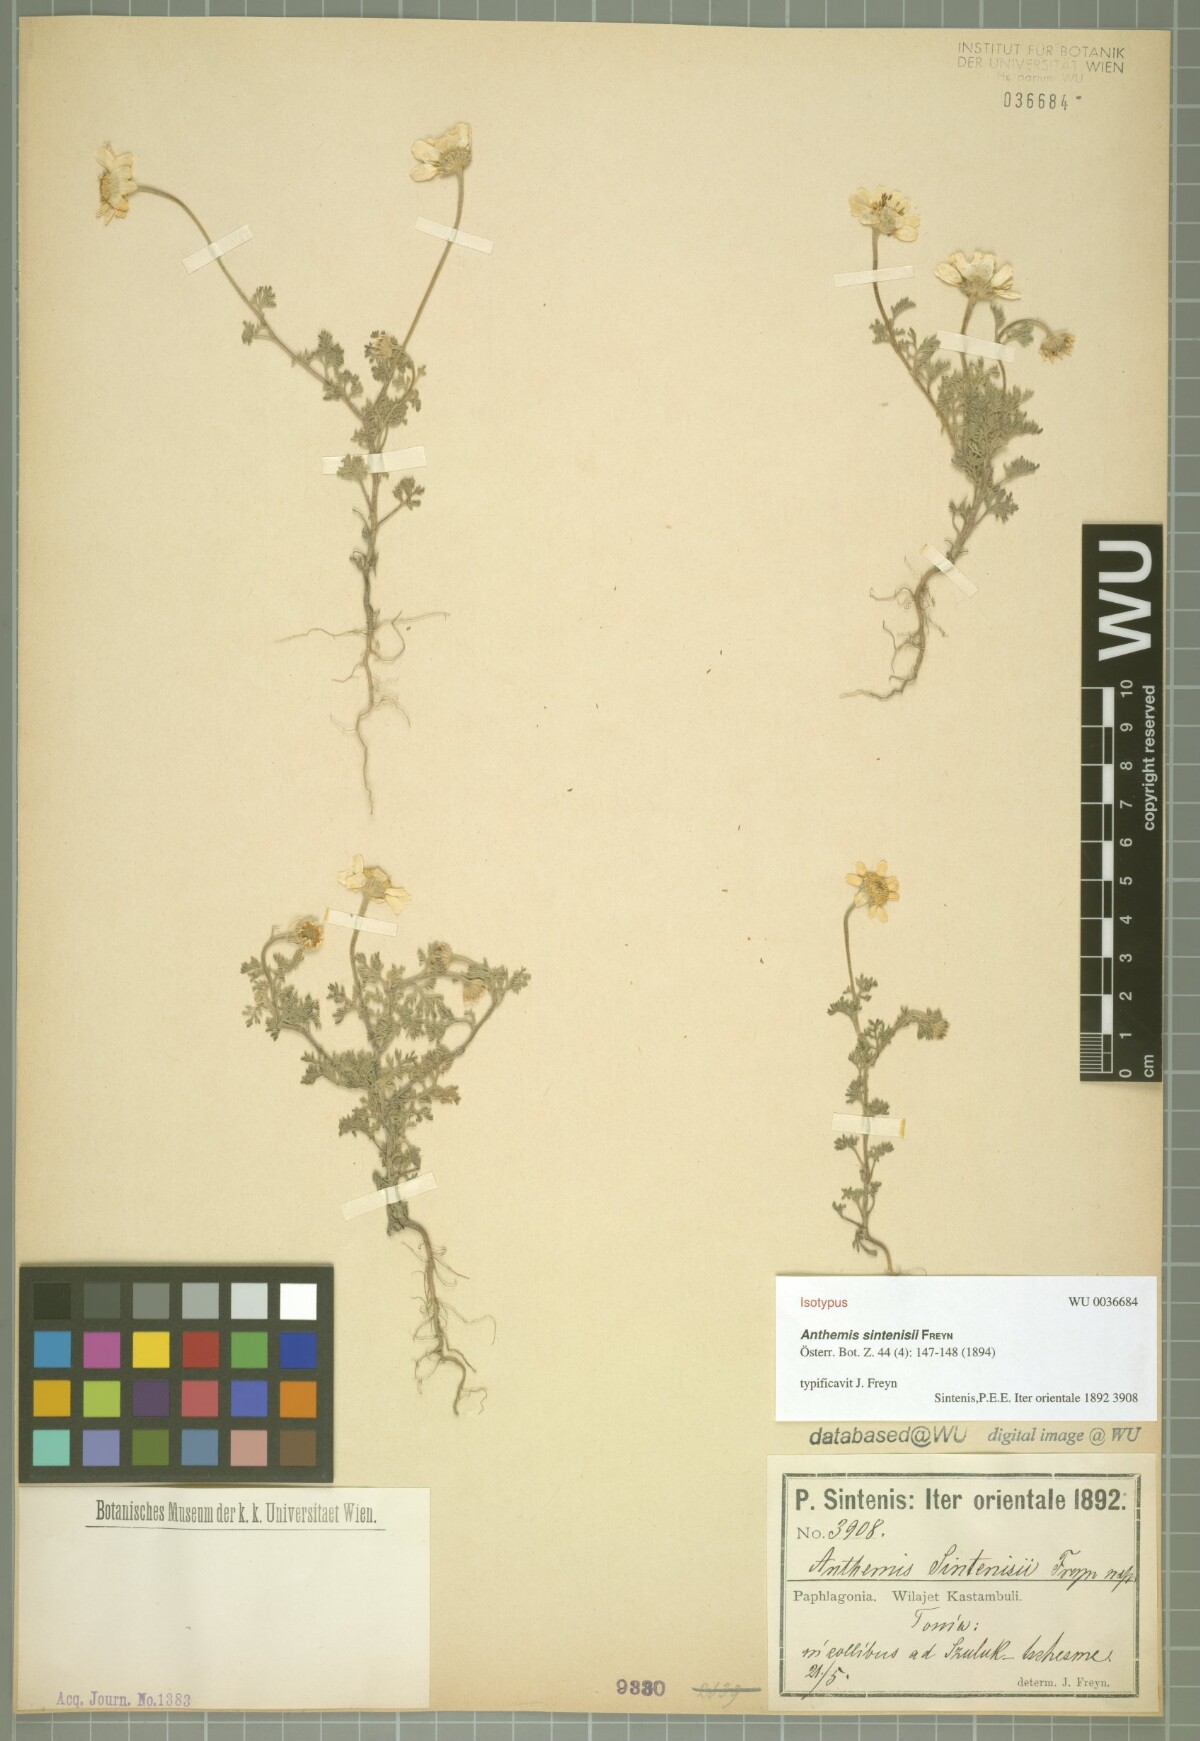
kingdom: Plantae
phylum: Tracheophyta
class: Magnoliopsida
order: Asterales
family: Asteraceae
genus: Anthemis
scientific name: Anthemis sintenisii
